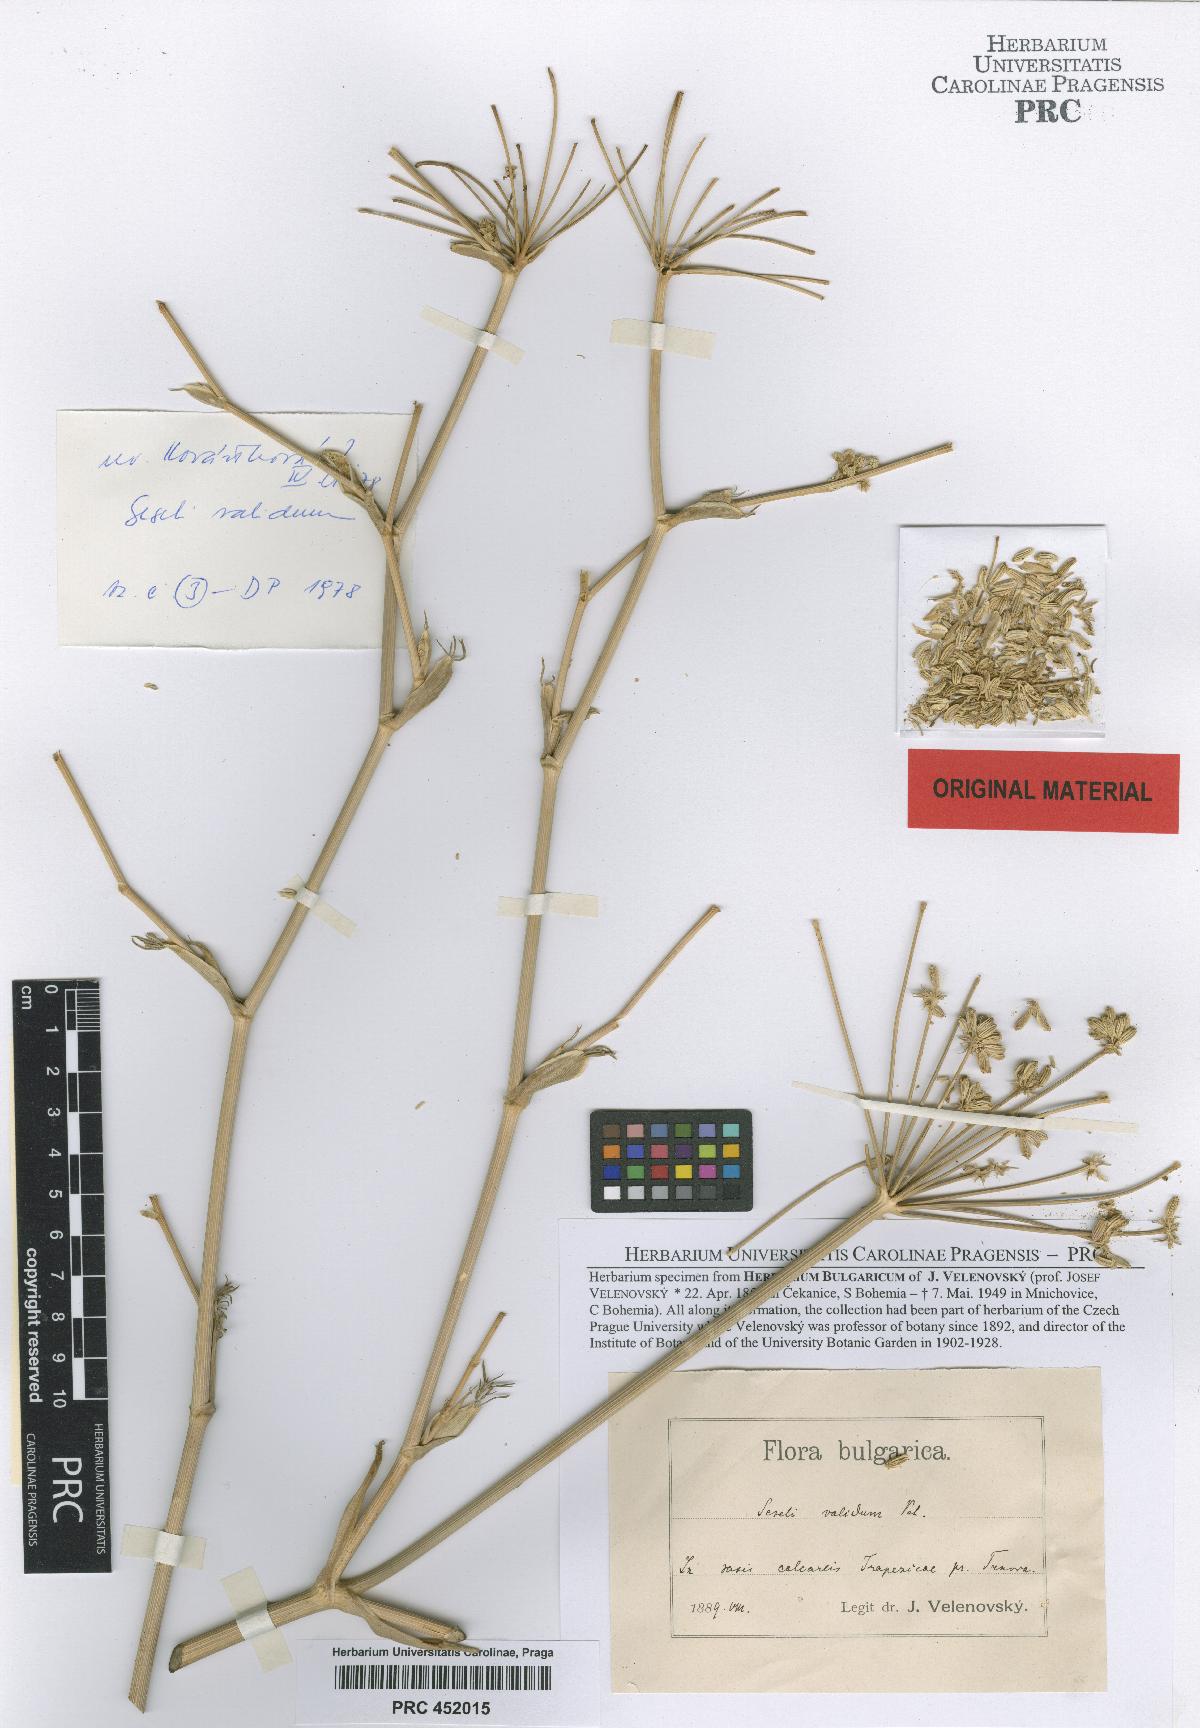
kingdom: Plantae
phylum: Tracheophyta
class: Magnoliopsida
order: Apiales
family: Apiaceae
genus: Seseli
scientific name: Seseli rhodopeum
